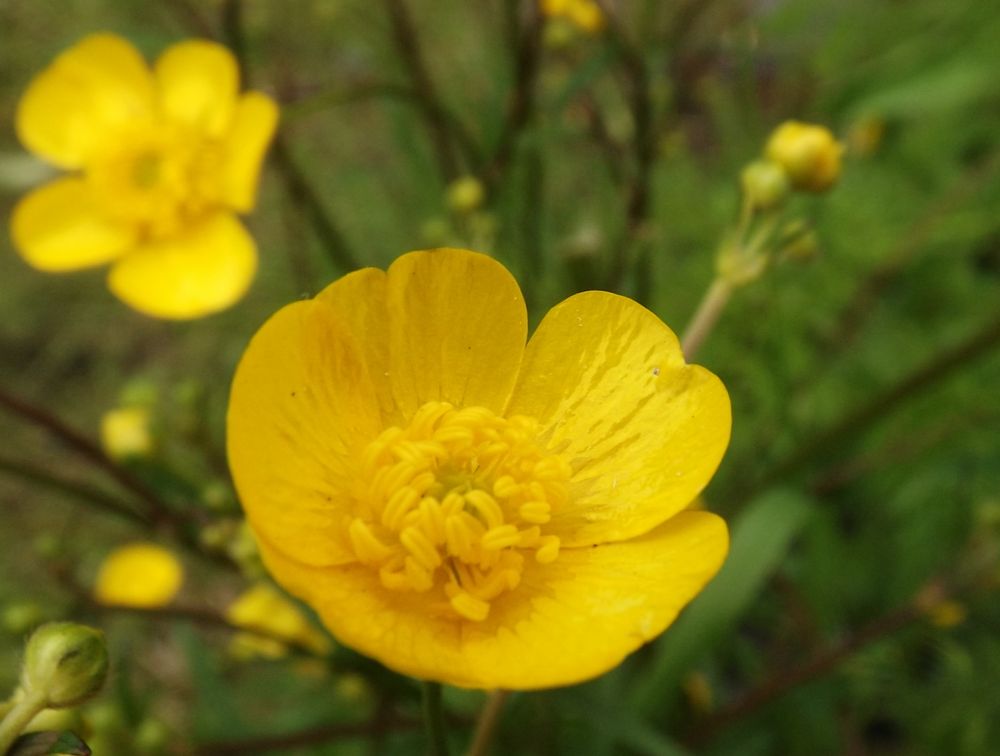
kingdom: Plantae
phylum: Tracheophyta
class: Magnoliopsida
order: Ranunculales
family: Ranunculaceae
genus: Ranunculus
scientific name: Ranunculus acris
